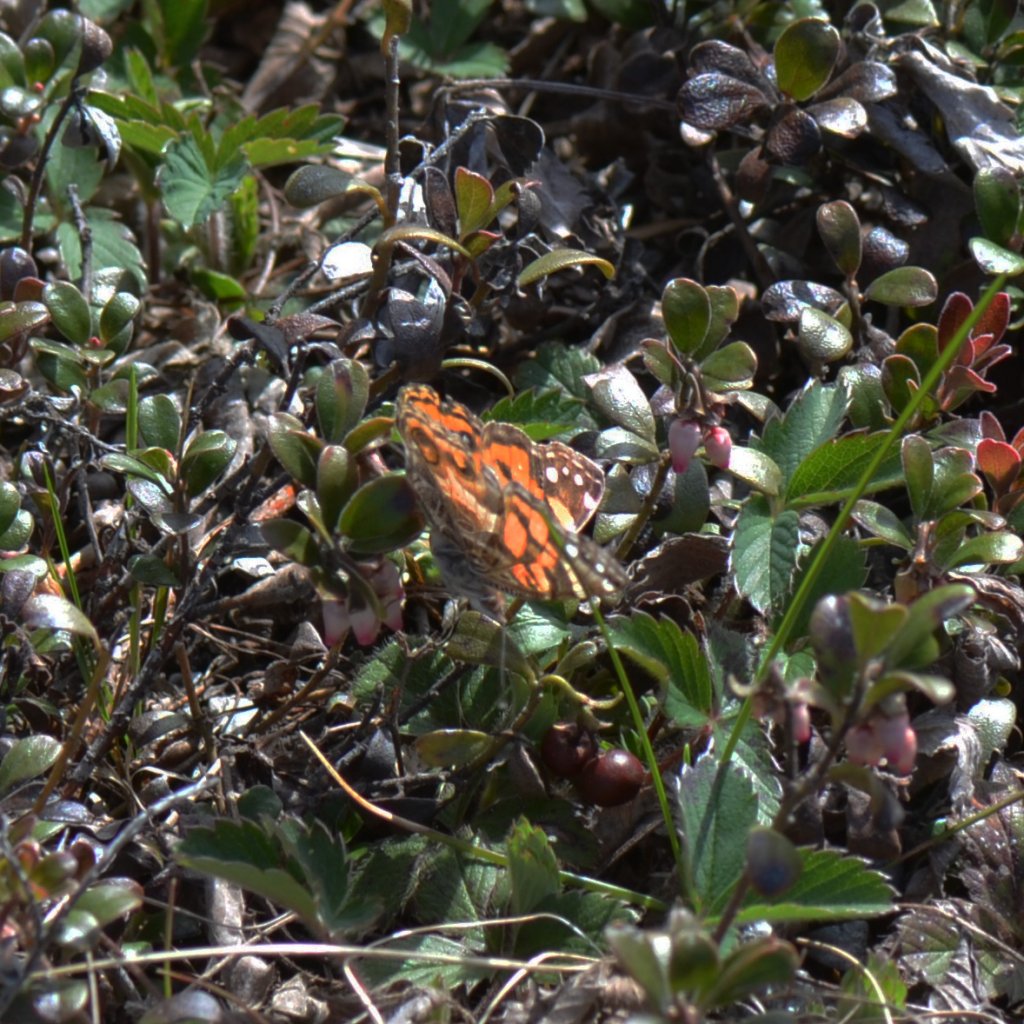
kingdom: Animalia
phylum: Arthropoda
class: Insecta
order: Lepidoptera
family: Nymphalidae
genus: Vanessa
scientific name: Vanessa virginiensis
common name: American Lady
